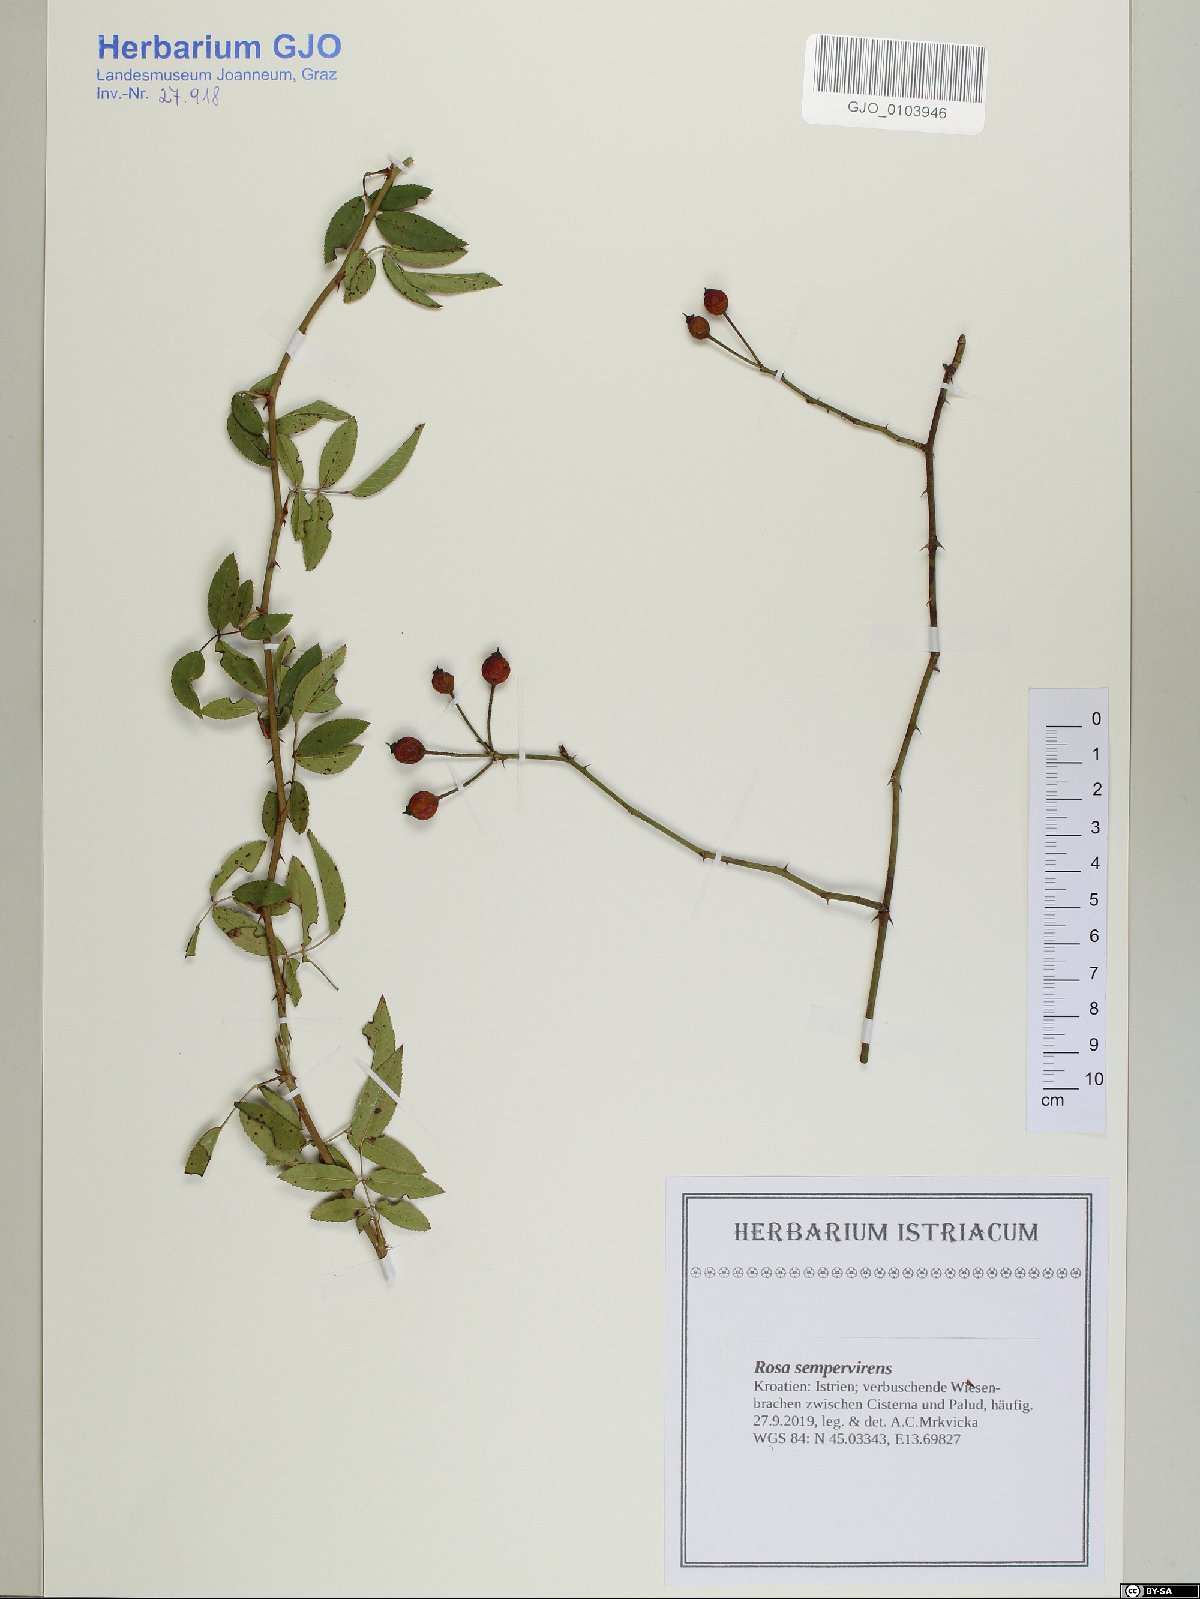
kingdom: Plantae
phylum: Tracheophyta
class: Magnoliopsida
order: Rosales
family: Rosaceae
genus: Rosa
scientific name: Rosa sempervirens
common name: Evergreen rose
